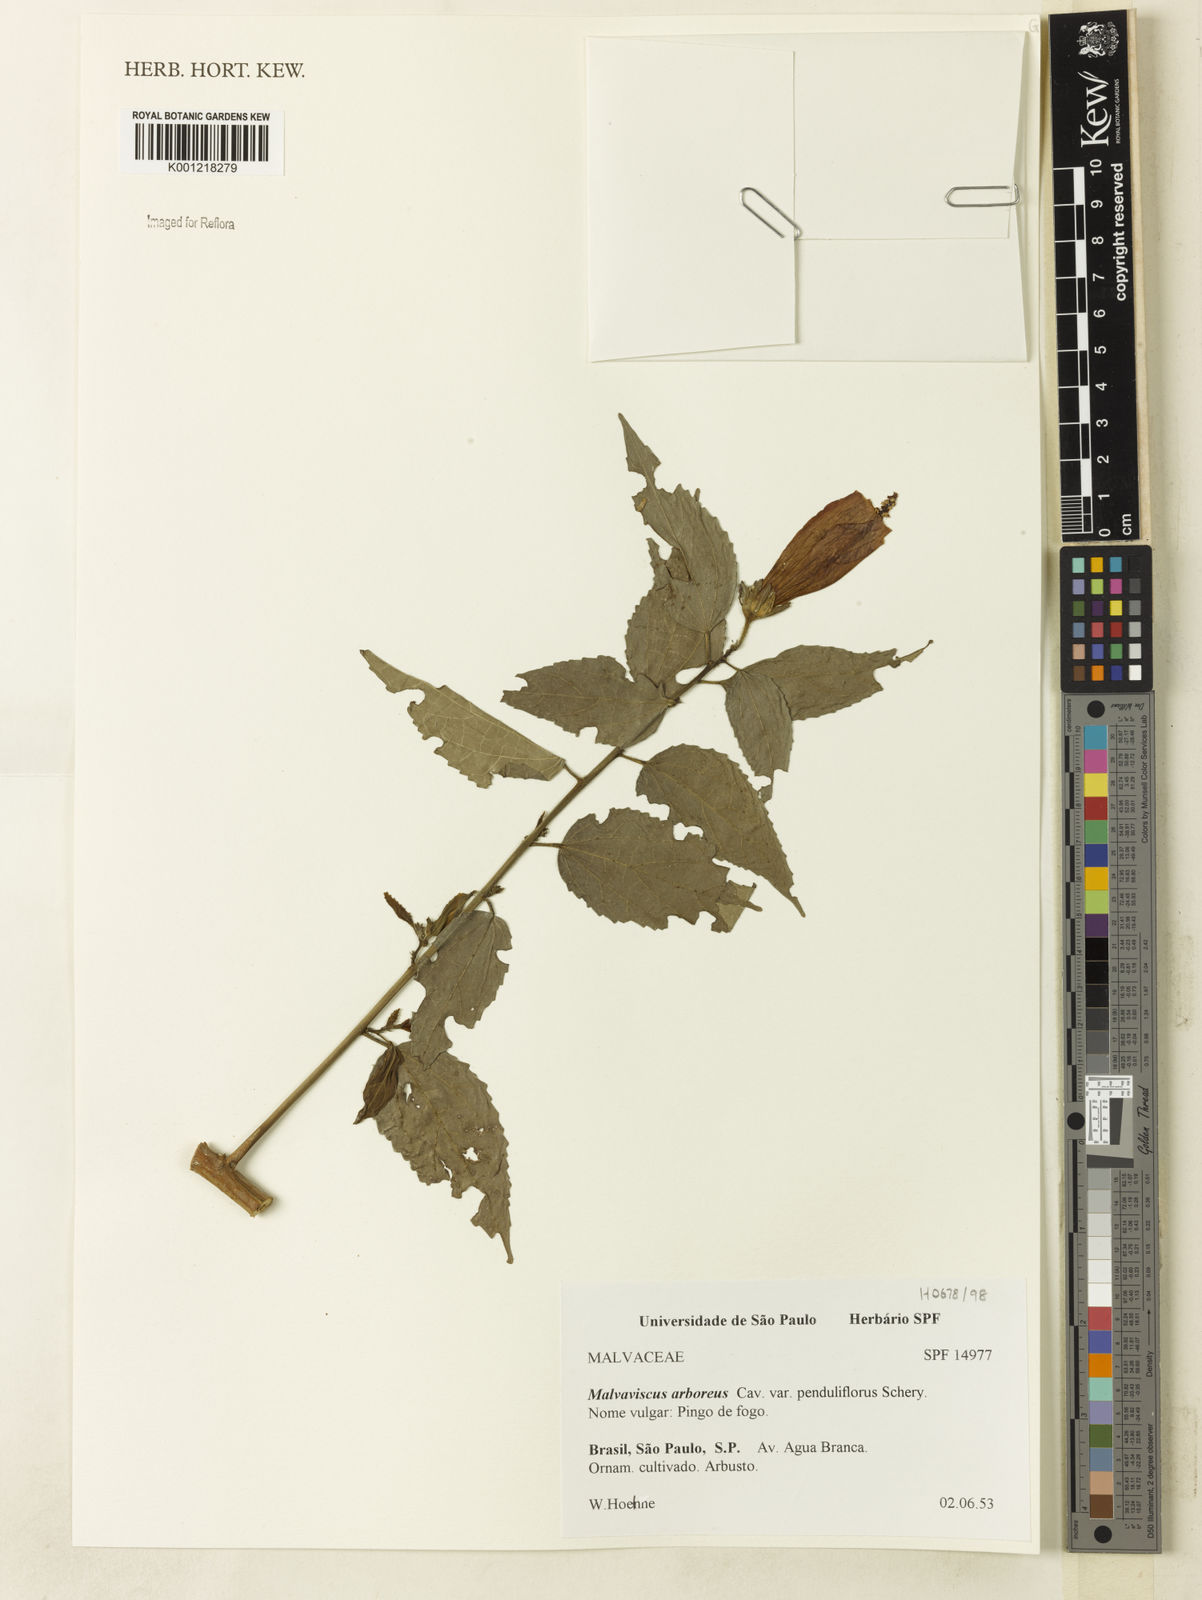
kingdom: Plantae
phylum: Tracheophyta
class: Magnoliopsida
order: Malvales
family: Malvaceae
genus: Malvaviscus
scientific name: Malvaviscus arboreus
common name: Wax mallow
